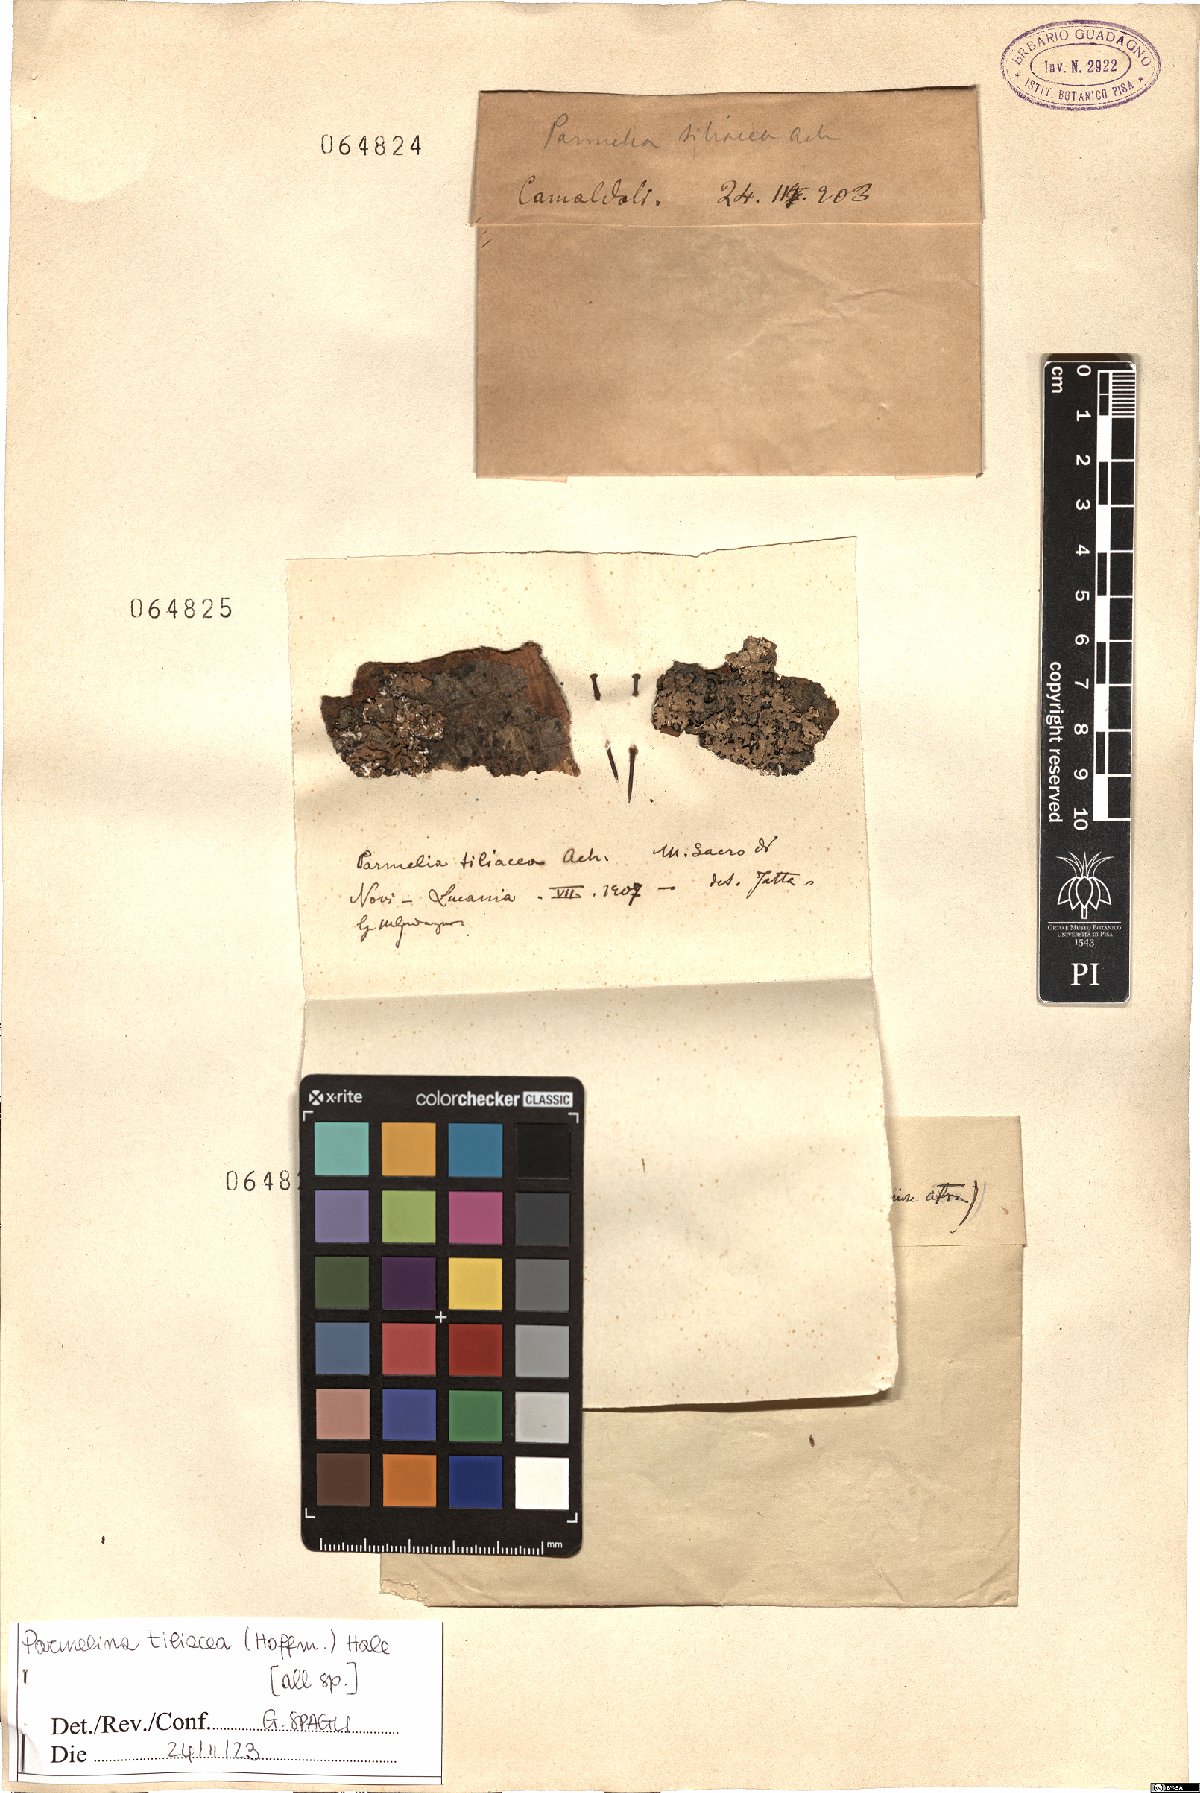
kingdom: Fungi
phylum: Ascomycota
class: Lecanoromycetes
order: Lecanorales
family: Parmeliaceae
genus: Parmelina
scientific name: Parmelina tiliacea
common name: Linden shield lichen
